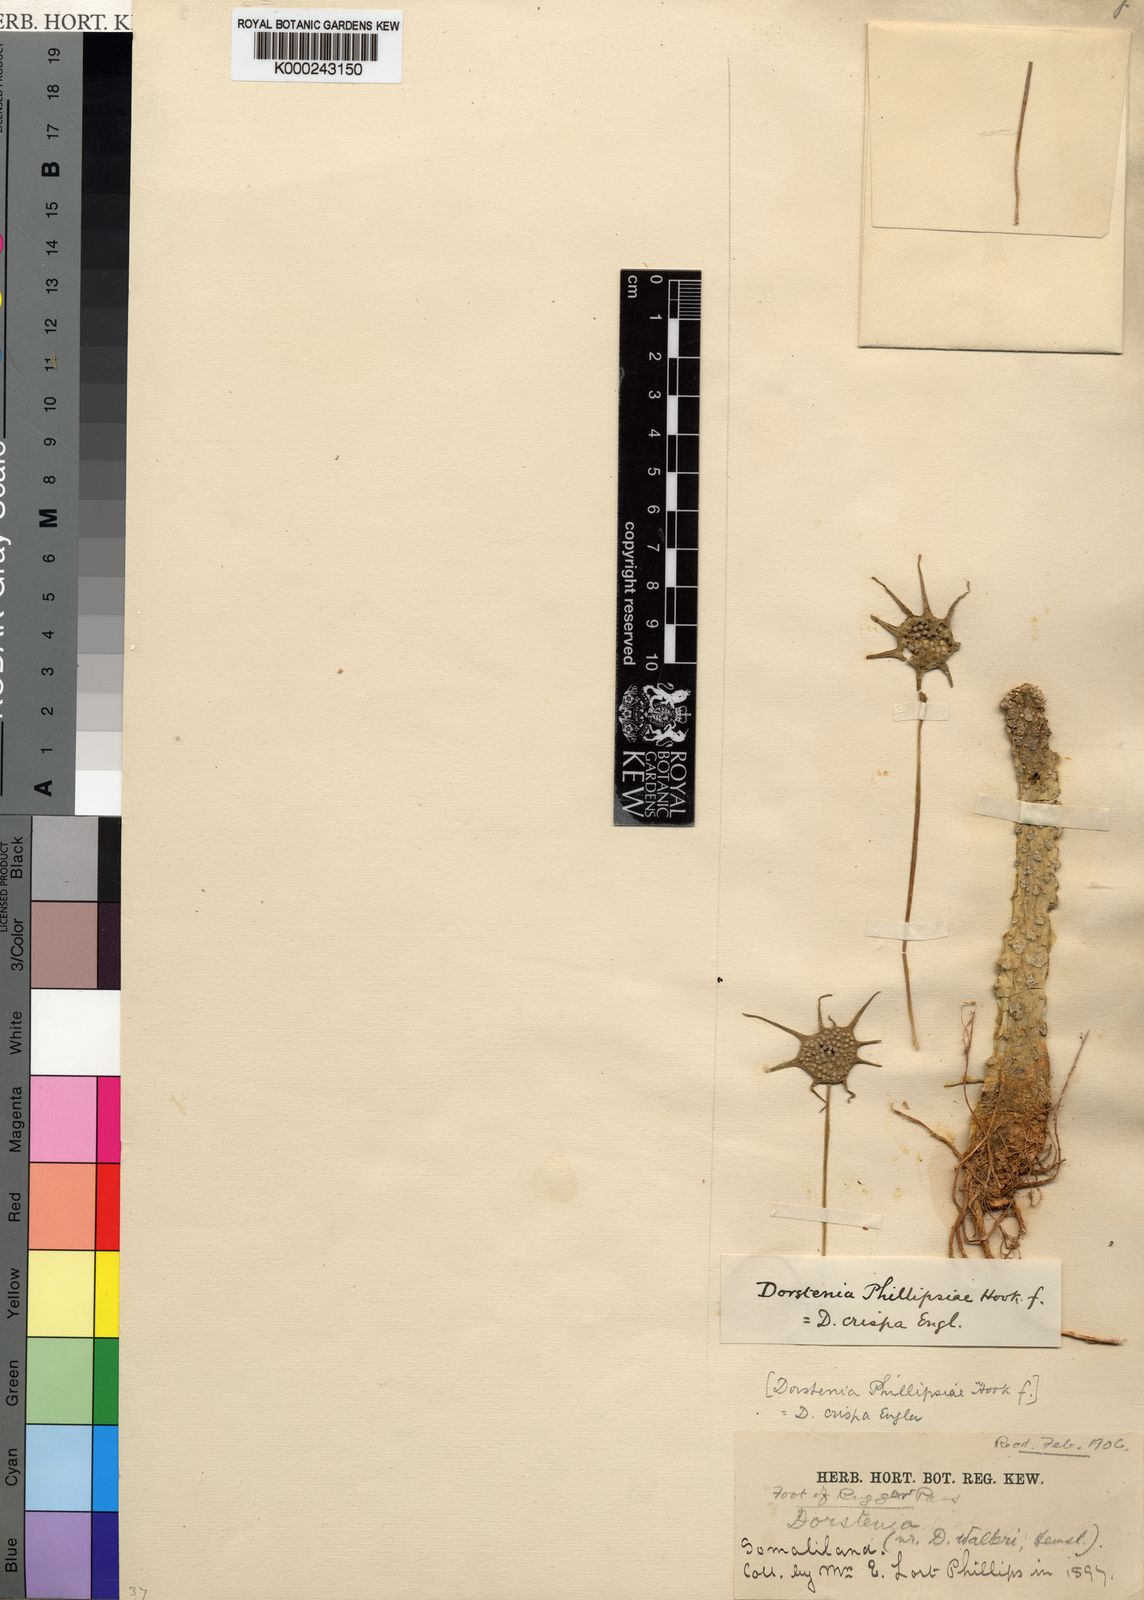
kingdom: Plantae
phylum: Tracheophyta
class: Magnoliopsida
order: Rosales
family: Moraceae
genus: Dorstenia
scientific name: Dorstenia foetida
